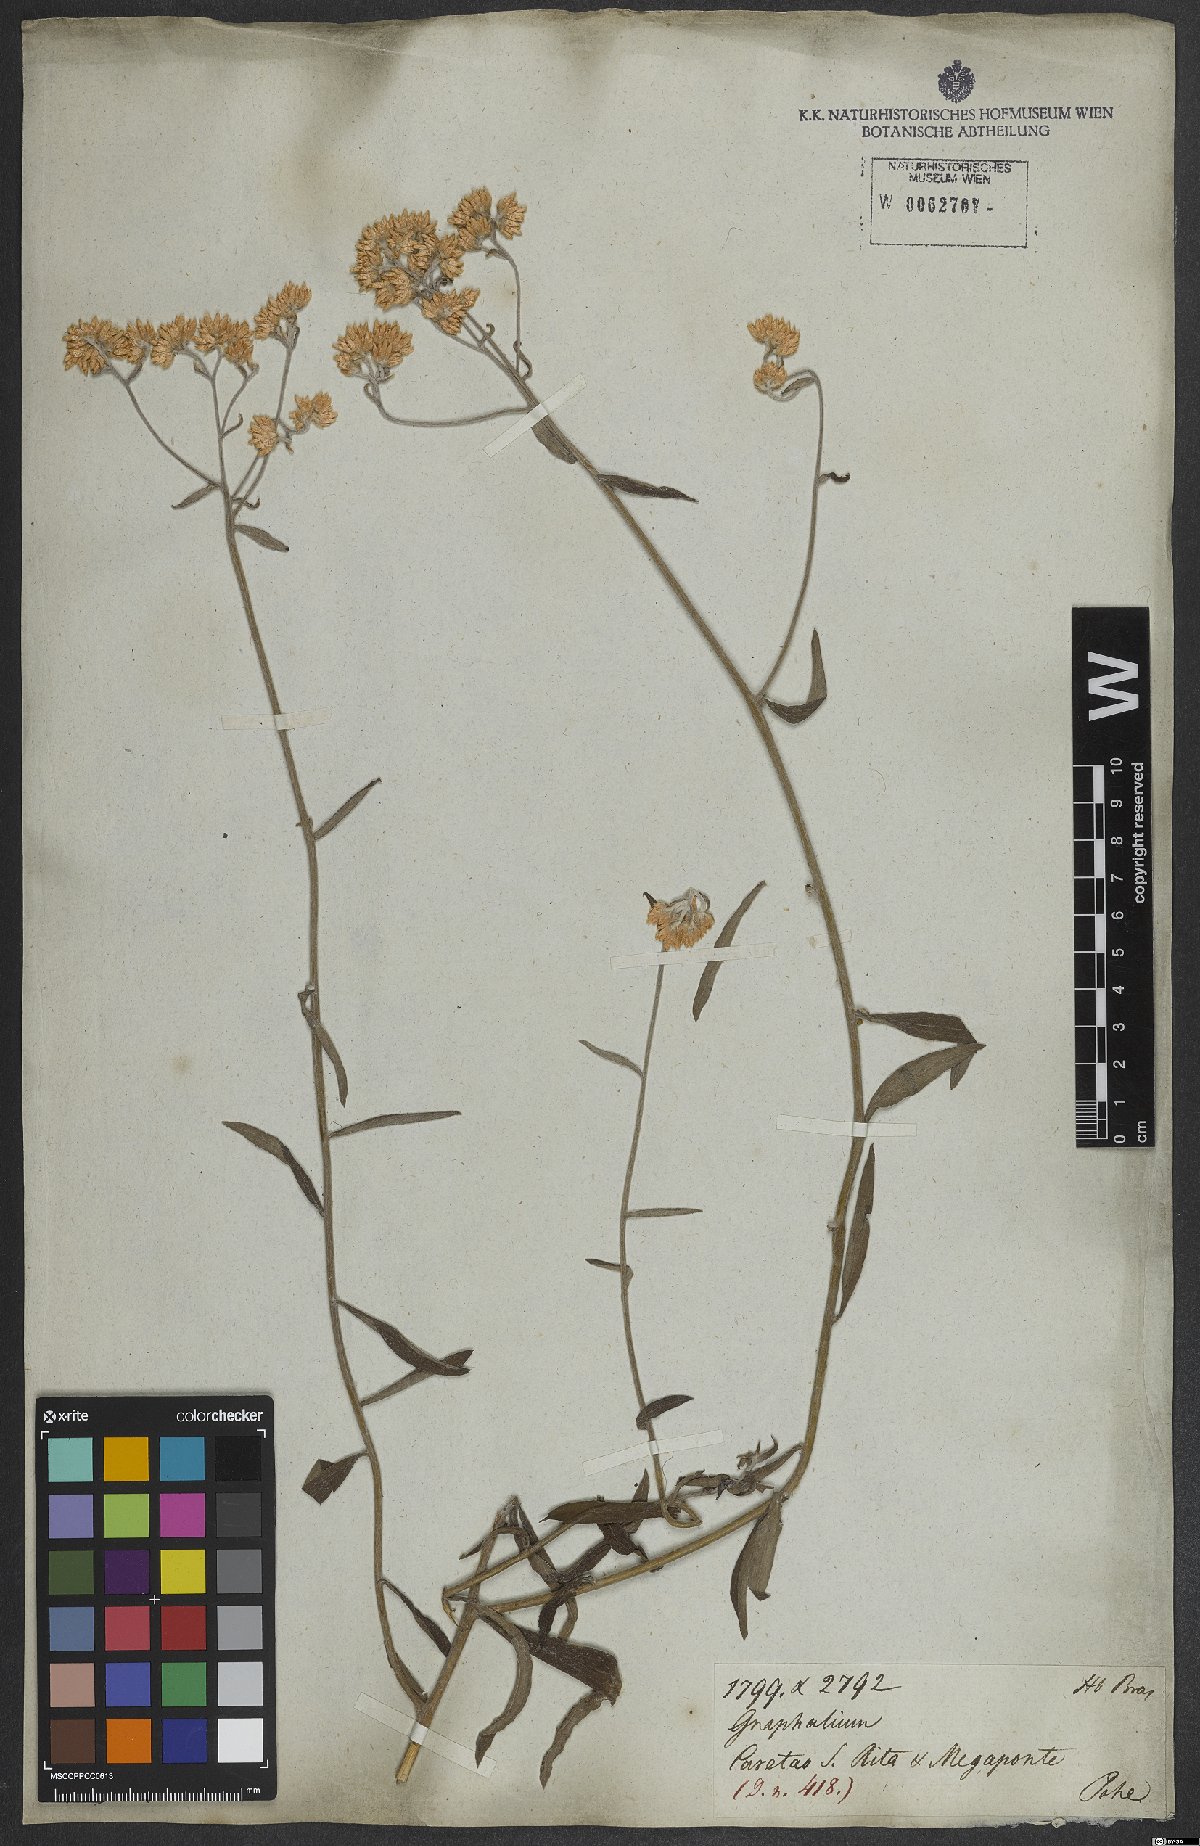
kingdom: Plantae
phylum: Tracheophyta
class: Magnoliopsida
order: Asterales
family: Asteraceae
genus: Achyrocline
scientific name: Achyrocline flaccida
